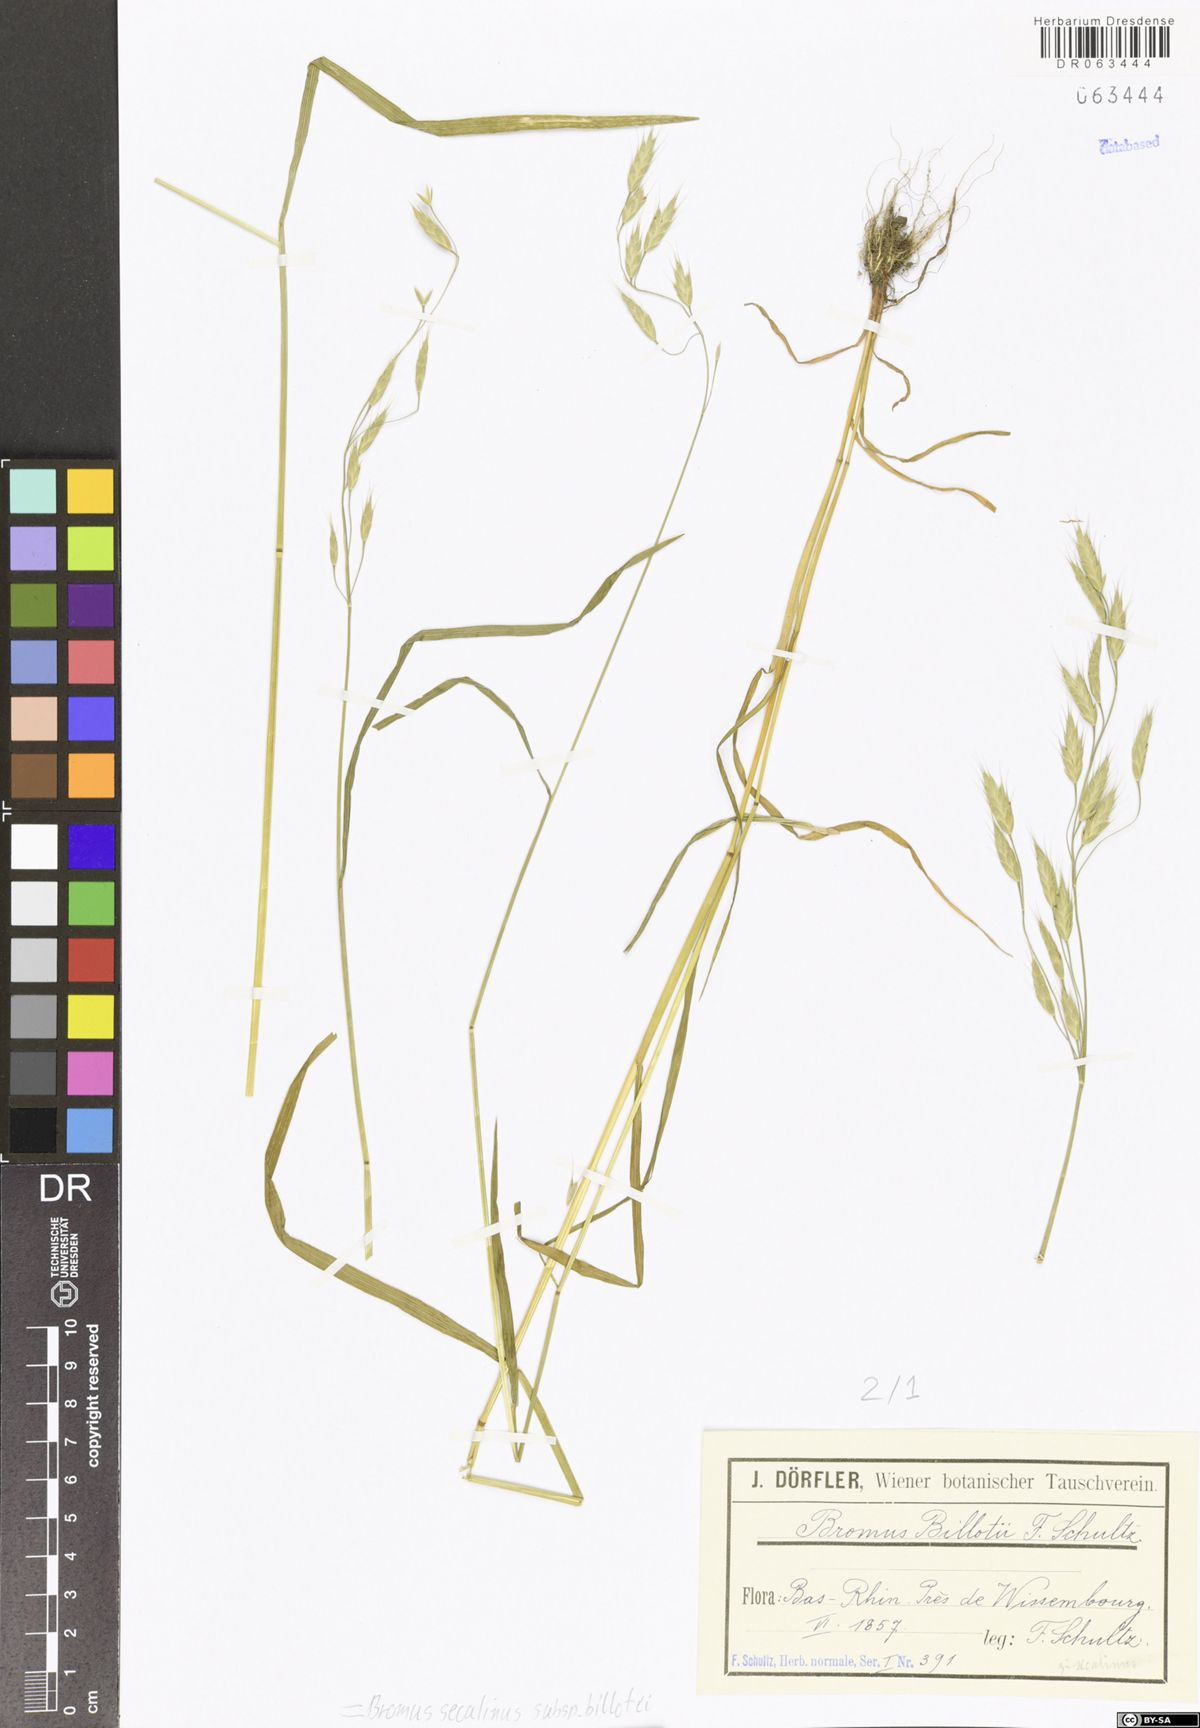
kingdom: Plantae
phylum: Tracheophyta
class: Liliopsida
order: Poales
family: Poaceae
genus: Bromus
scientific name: Bromus arvensis
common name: Field brome
